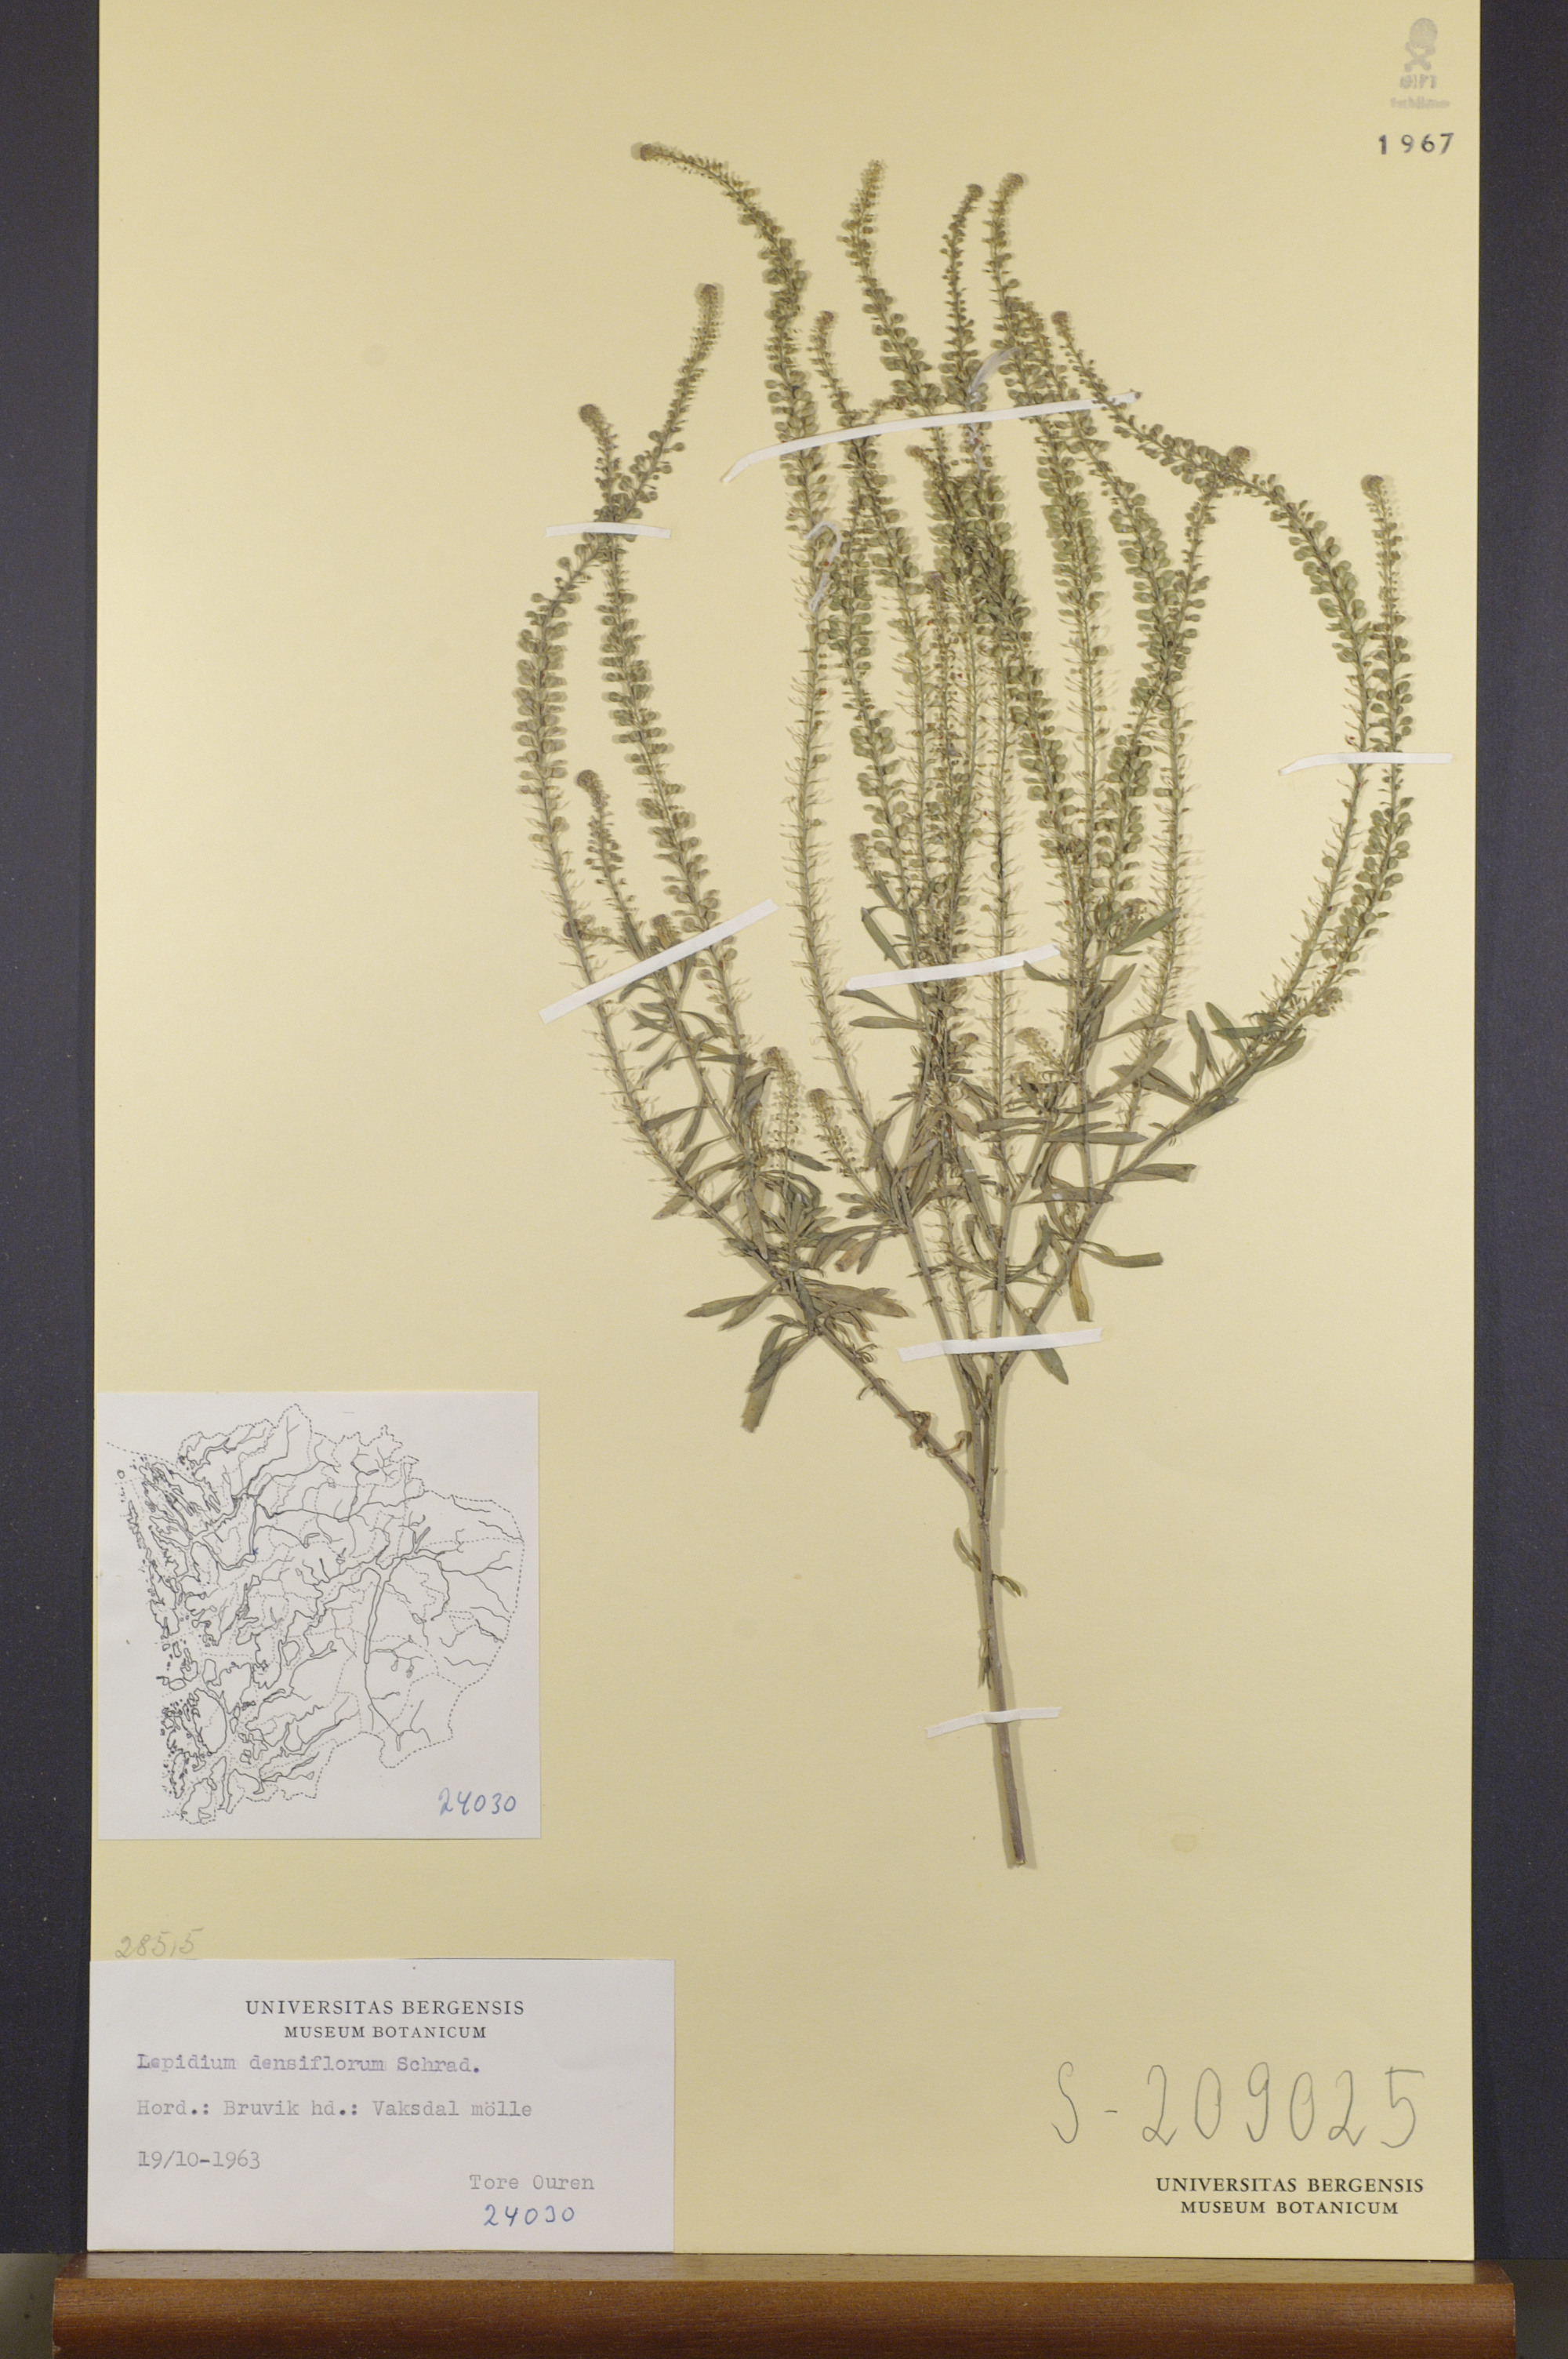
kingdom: Plantae
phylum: Tracheophyta
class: Magnoliopsida
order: Brassicales
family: Brassicaceae
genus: Lepidium
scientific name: Lepidium densiflorum
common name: Miner's pepperwort
